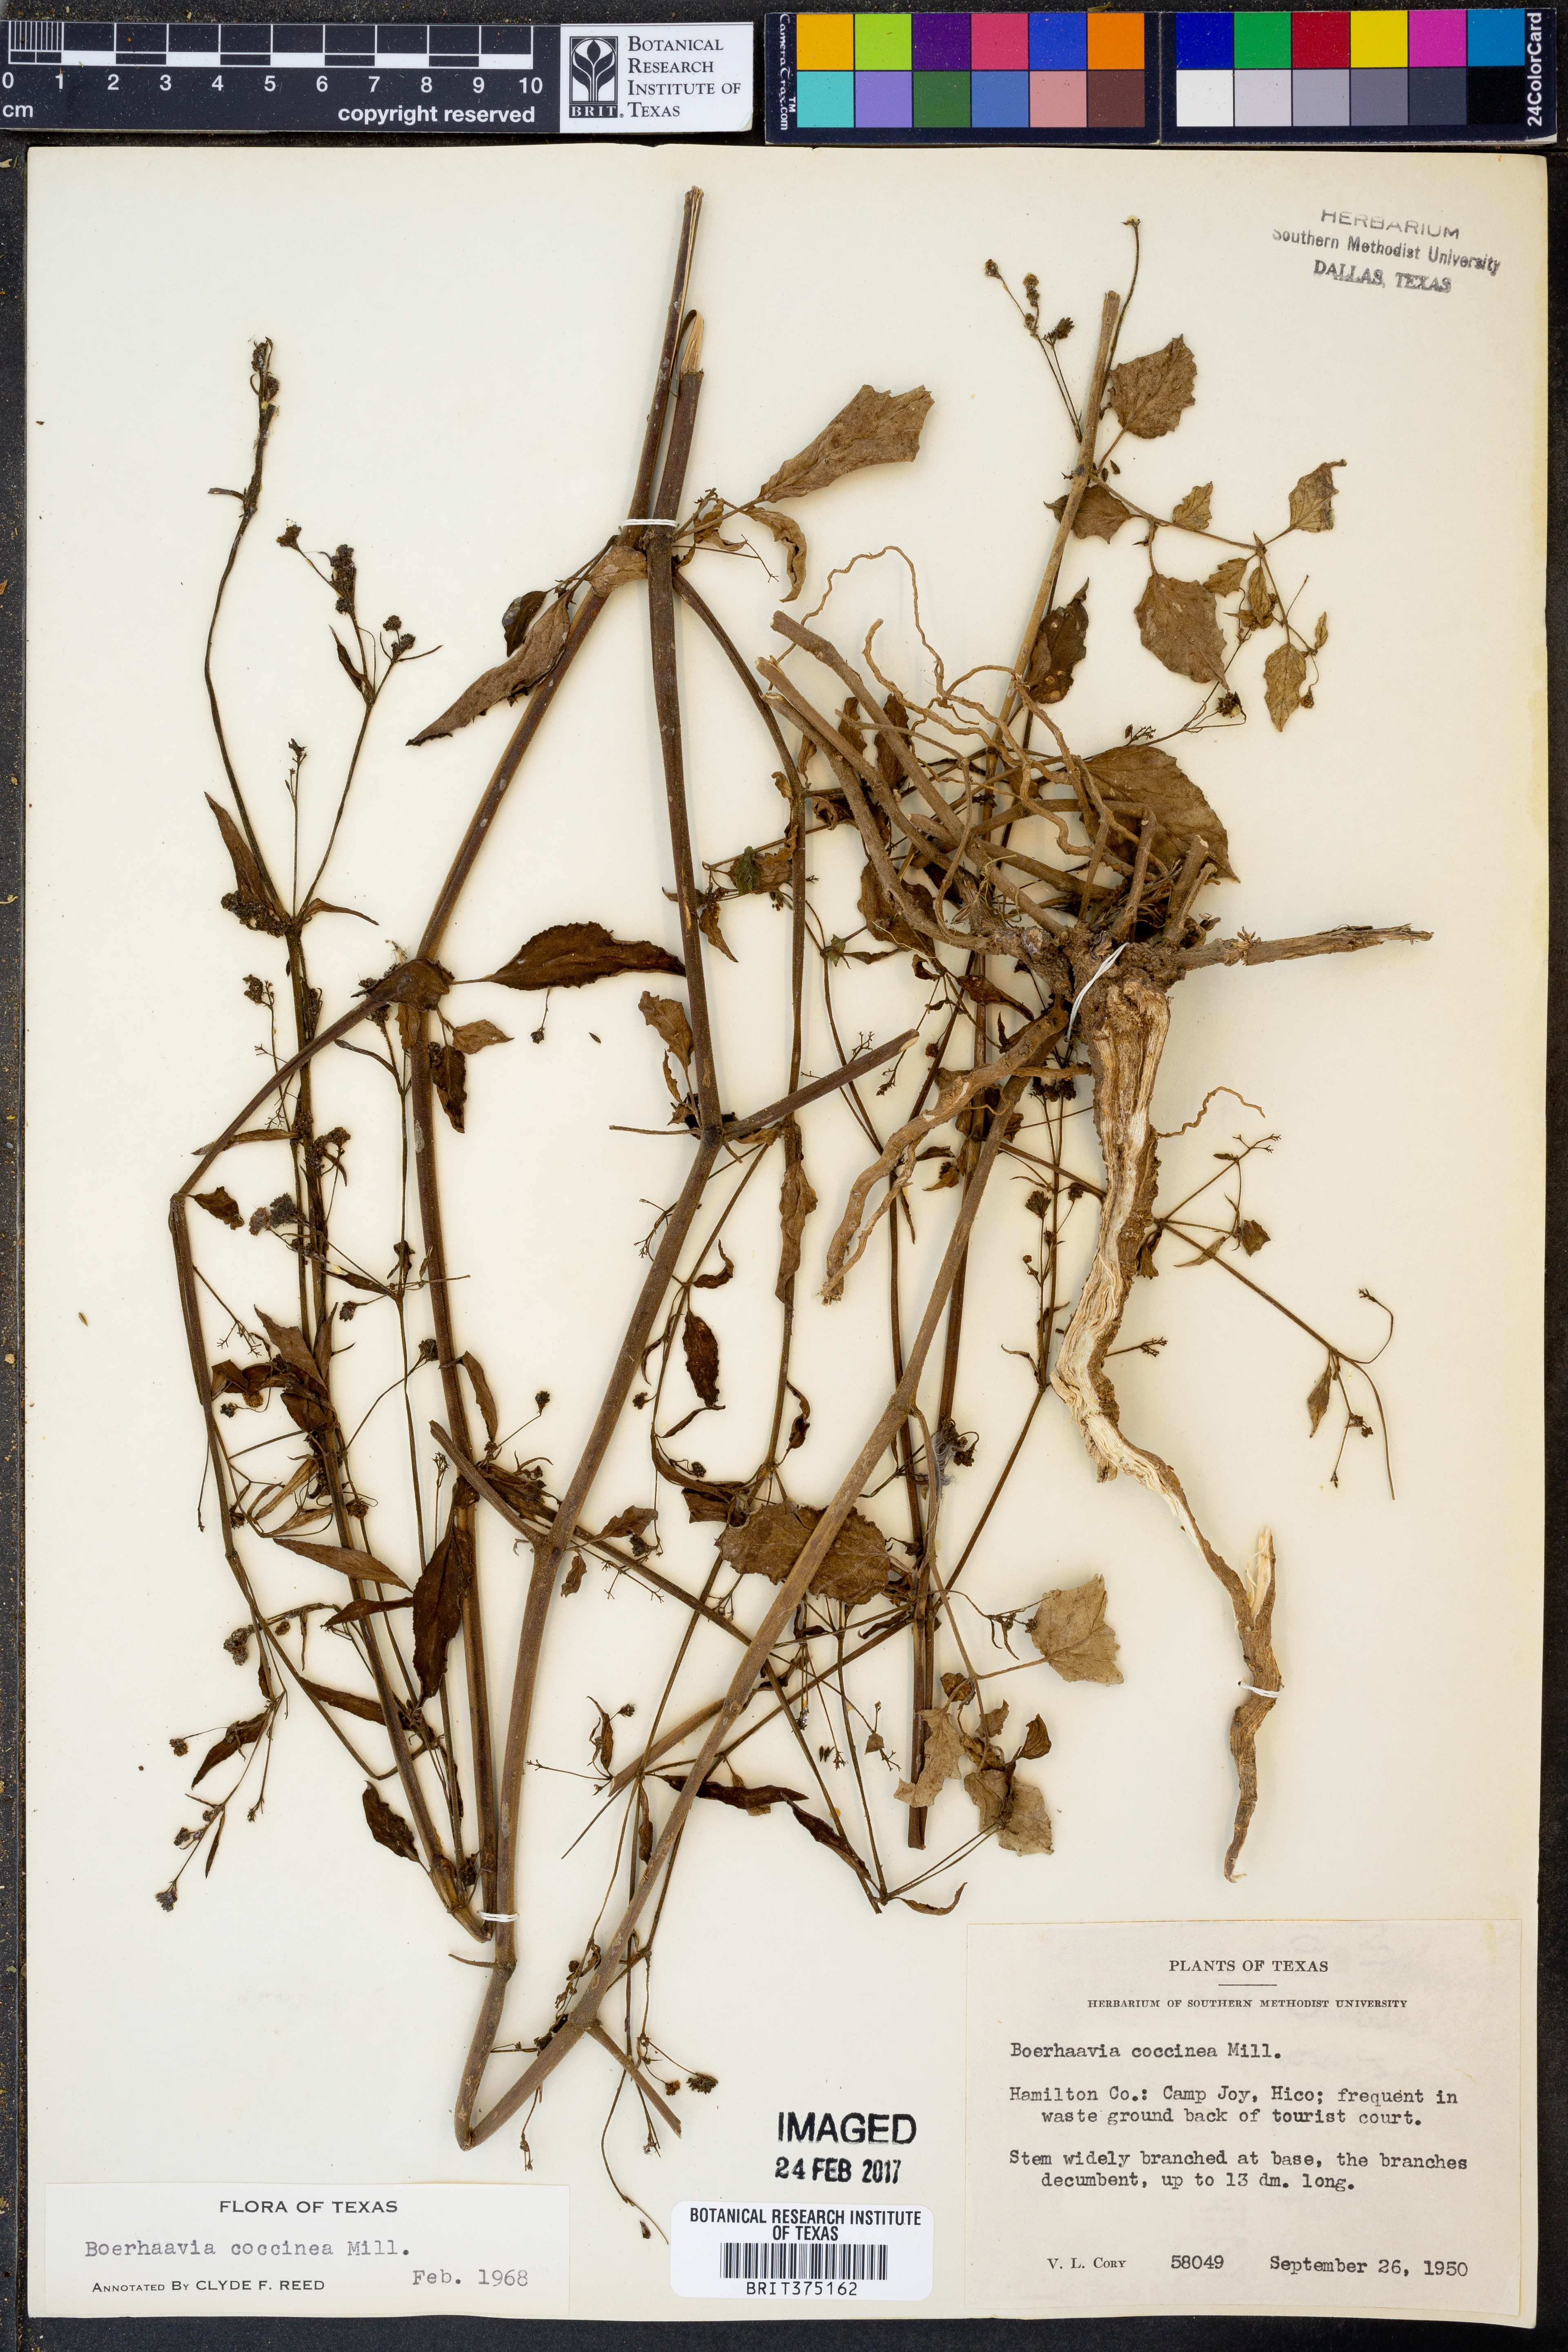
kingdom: Plantae
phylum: Tracheophyta
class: Magnoliopsida
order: Caryophyllales
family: Nyctaginaceae
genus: Boerhavia
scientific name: Boerhavia coccinea
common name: Scarlet spiderling
